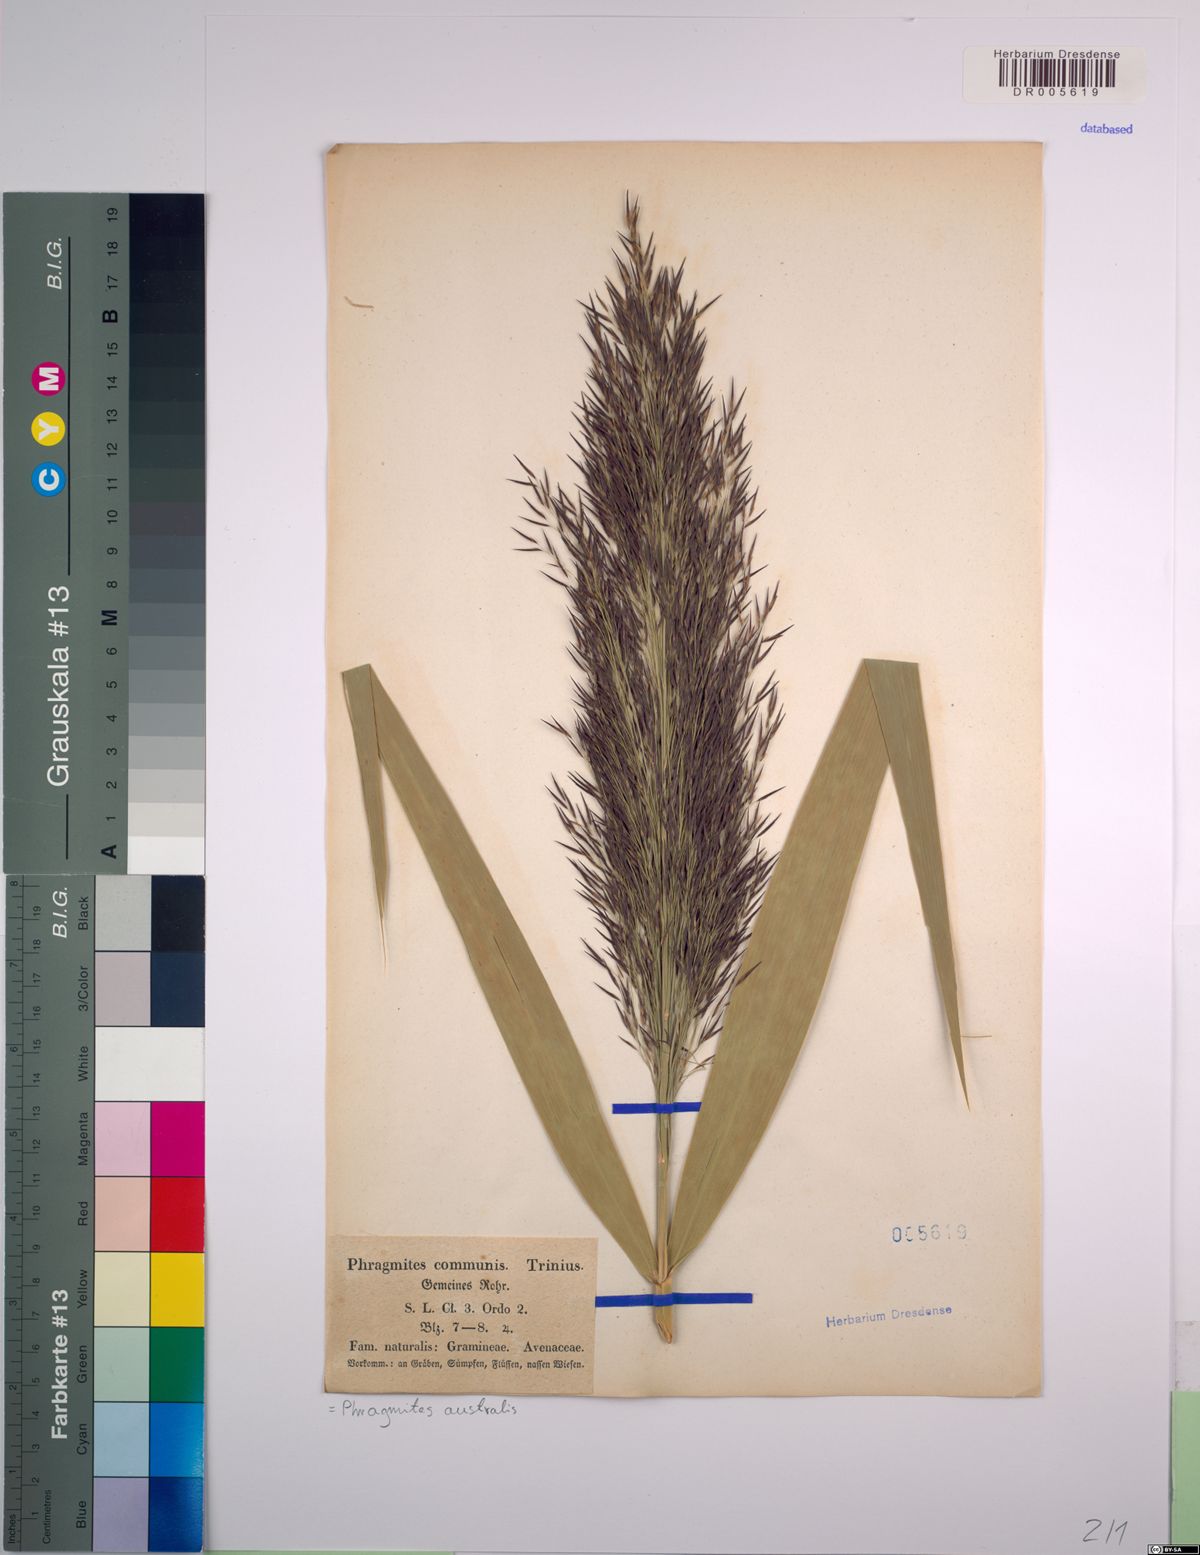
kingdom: Plantae
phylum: Tracheophyta
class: Liliopsida
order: Poales
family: Poaceae
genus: Phragmites
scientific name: Phragmites australis
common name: Common reed
